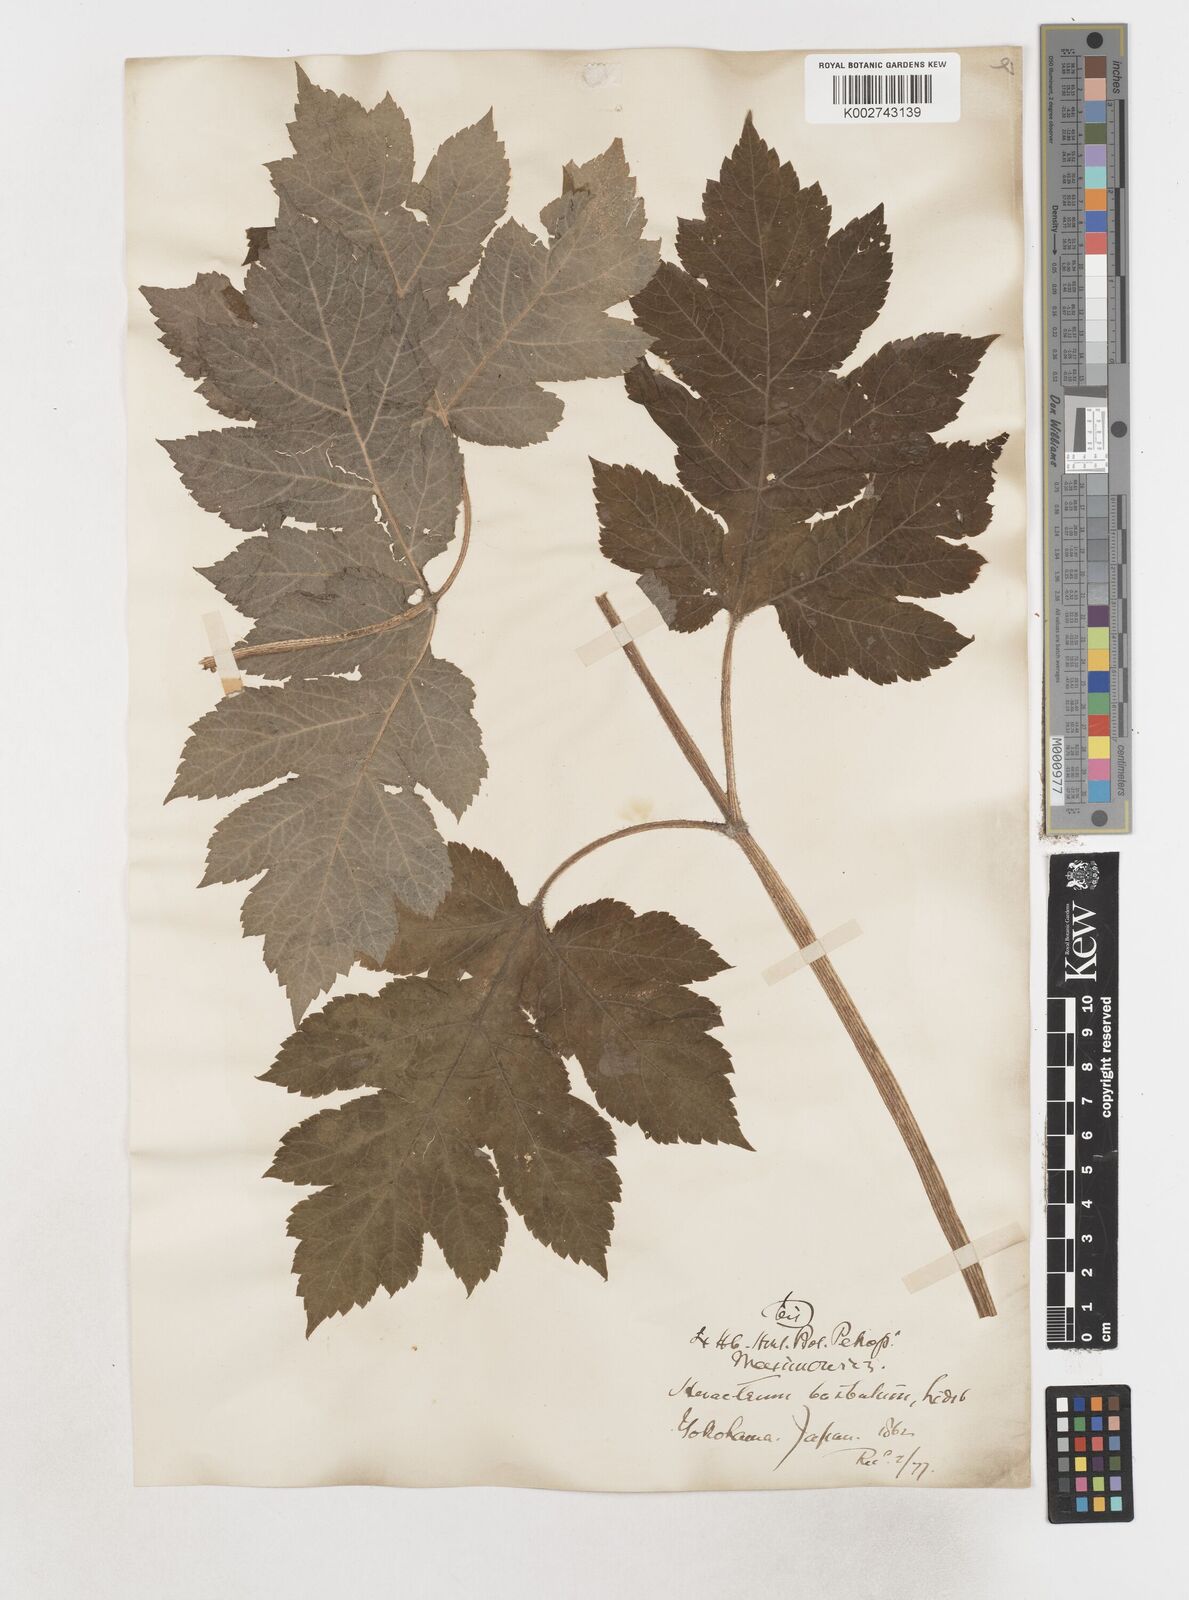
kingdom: Plantae
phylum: Tracheophyta
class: Magnoliopsida
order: Apiales
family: Apiaceae
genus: Heracleum
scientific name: Heracleum dissectum
